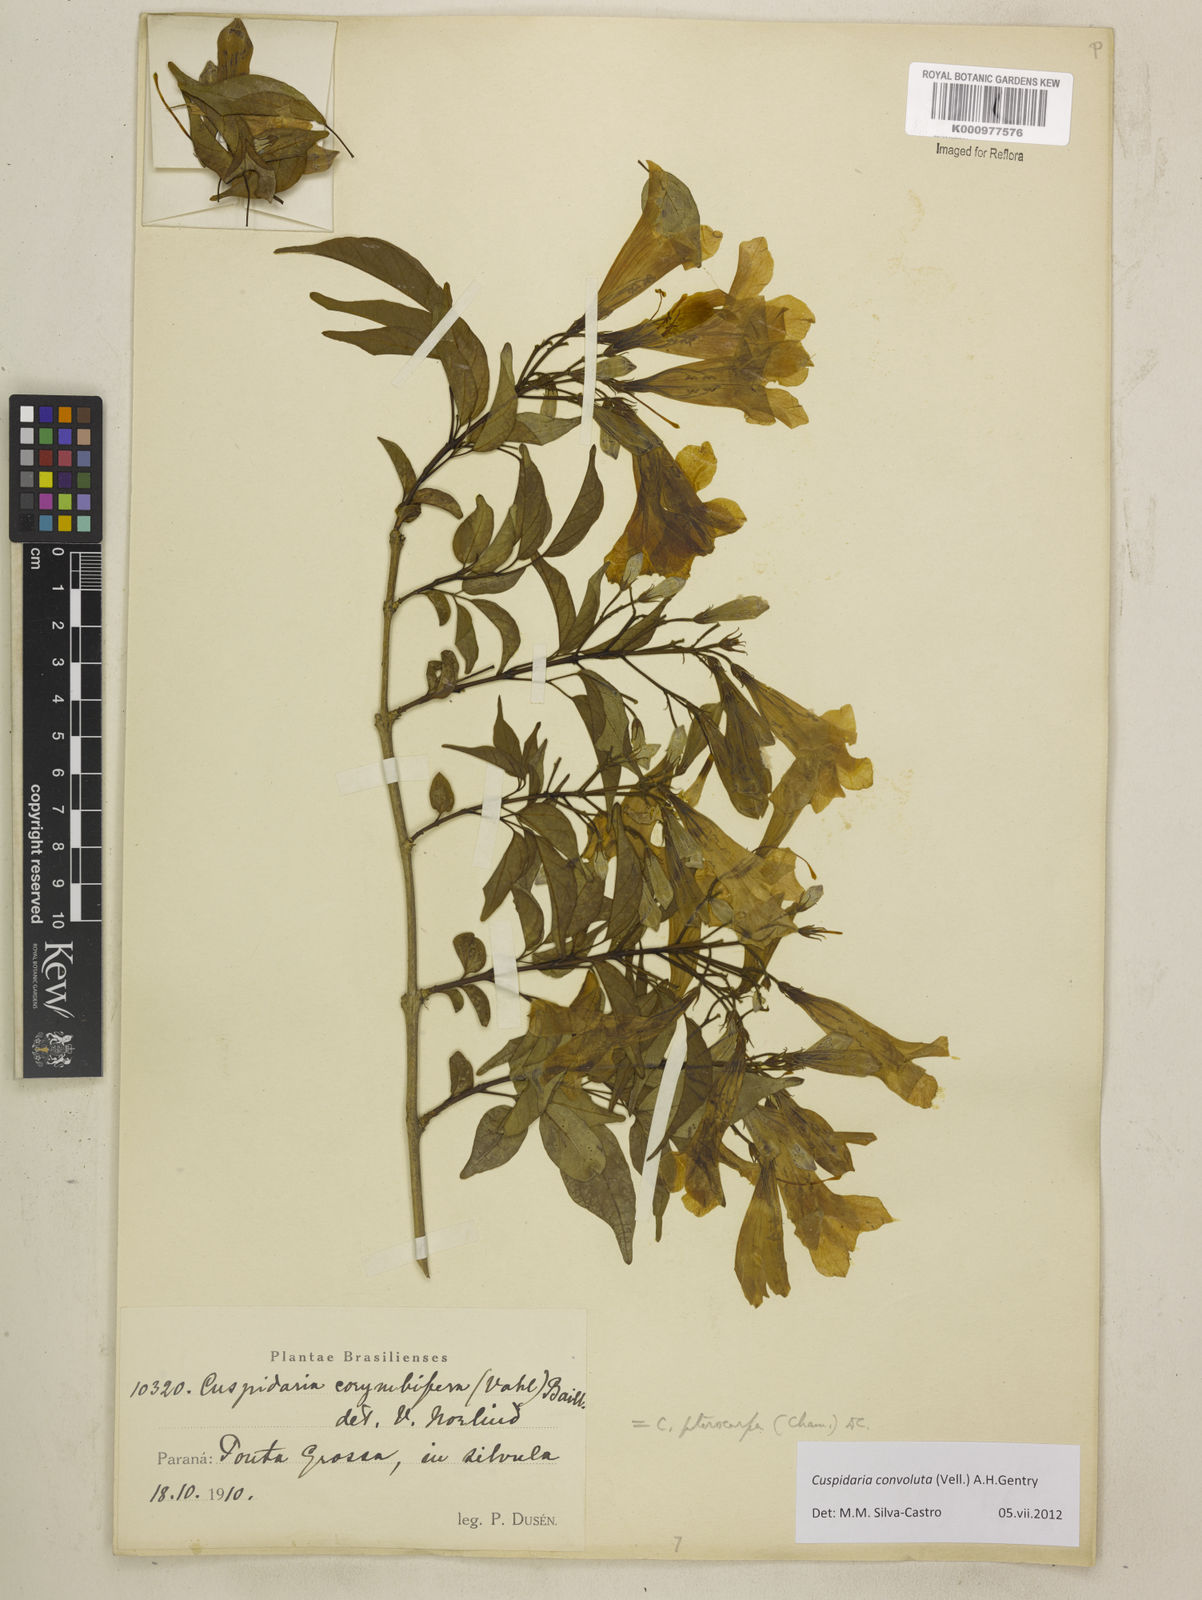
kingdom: Plantae
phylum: Tracheophyta
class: Magnoliopsida
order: Lamiales
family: Bignoniaceae
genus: Cuspidaria
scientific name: Cuspidaria convoluta
